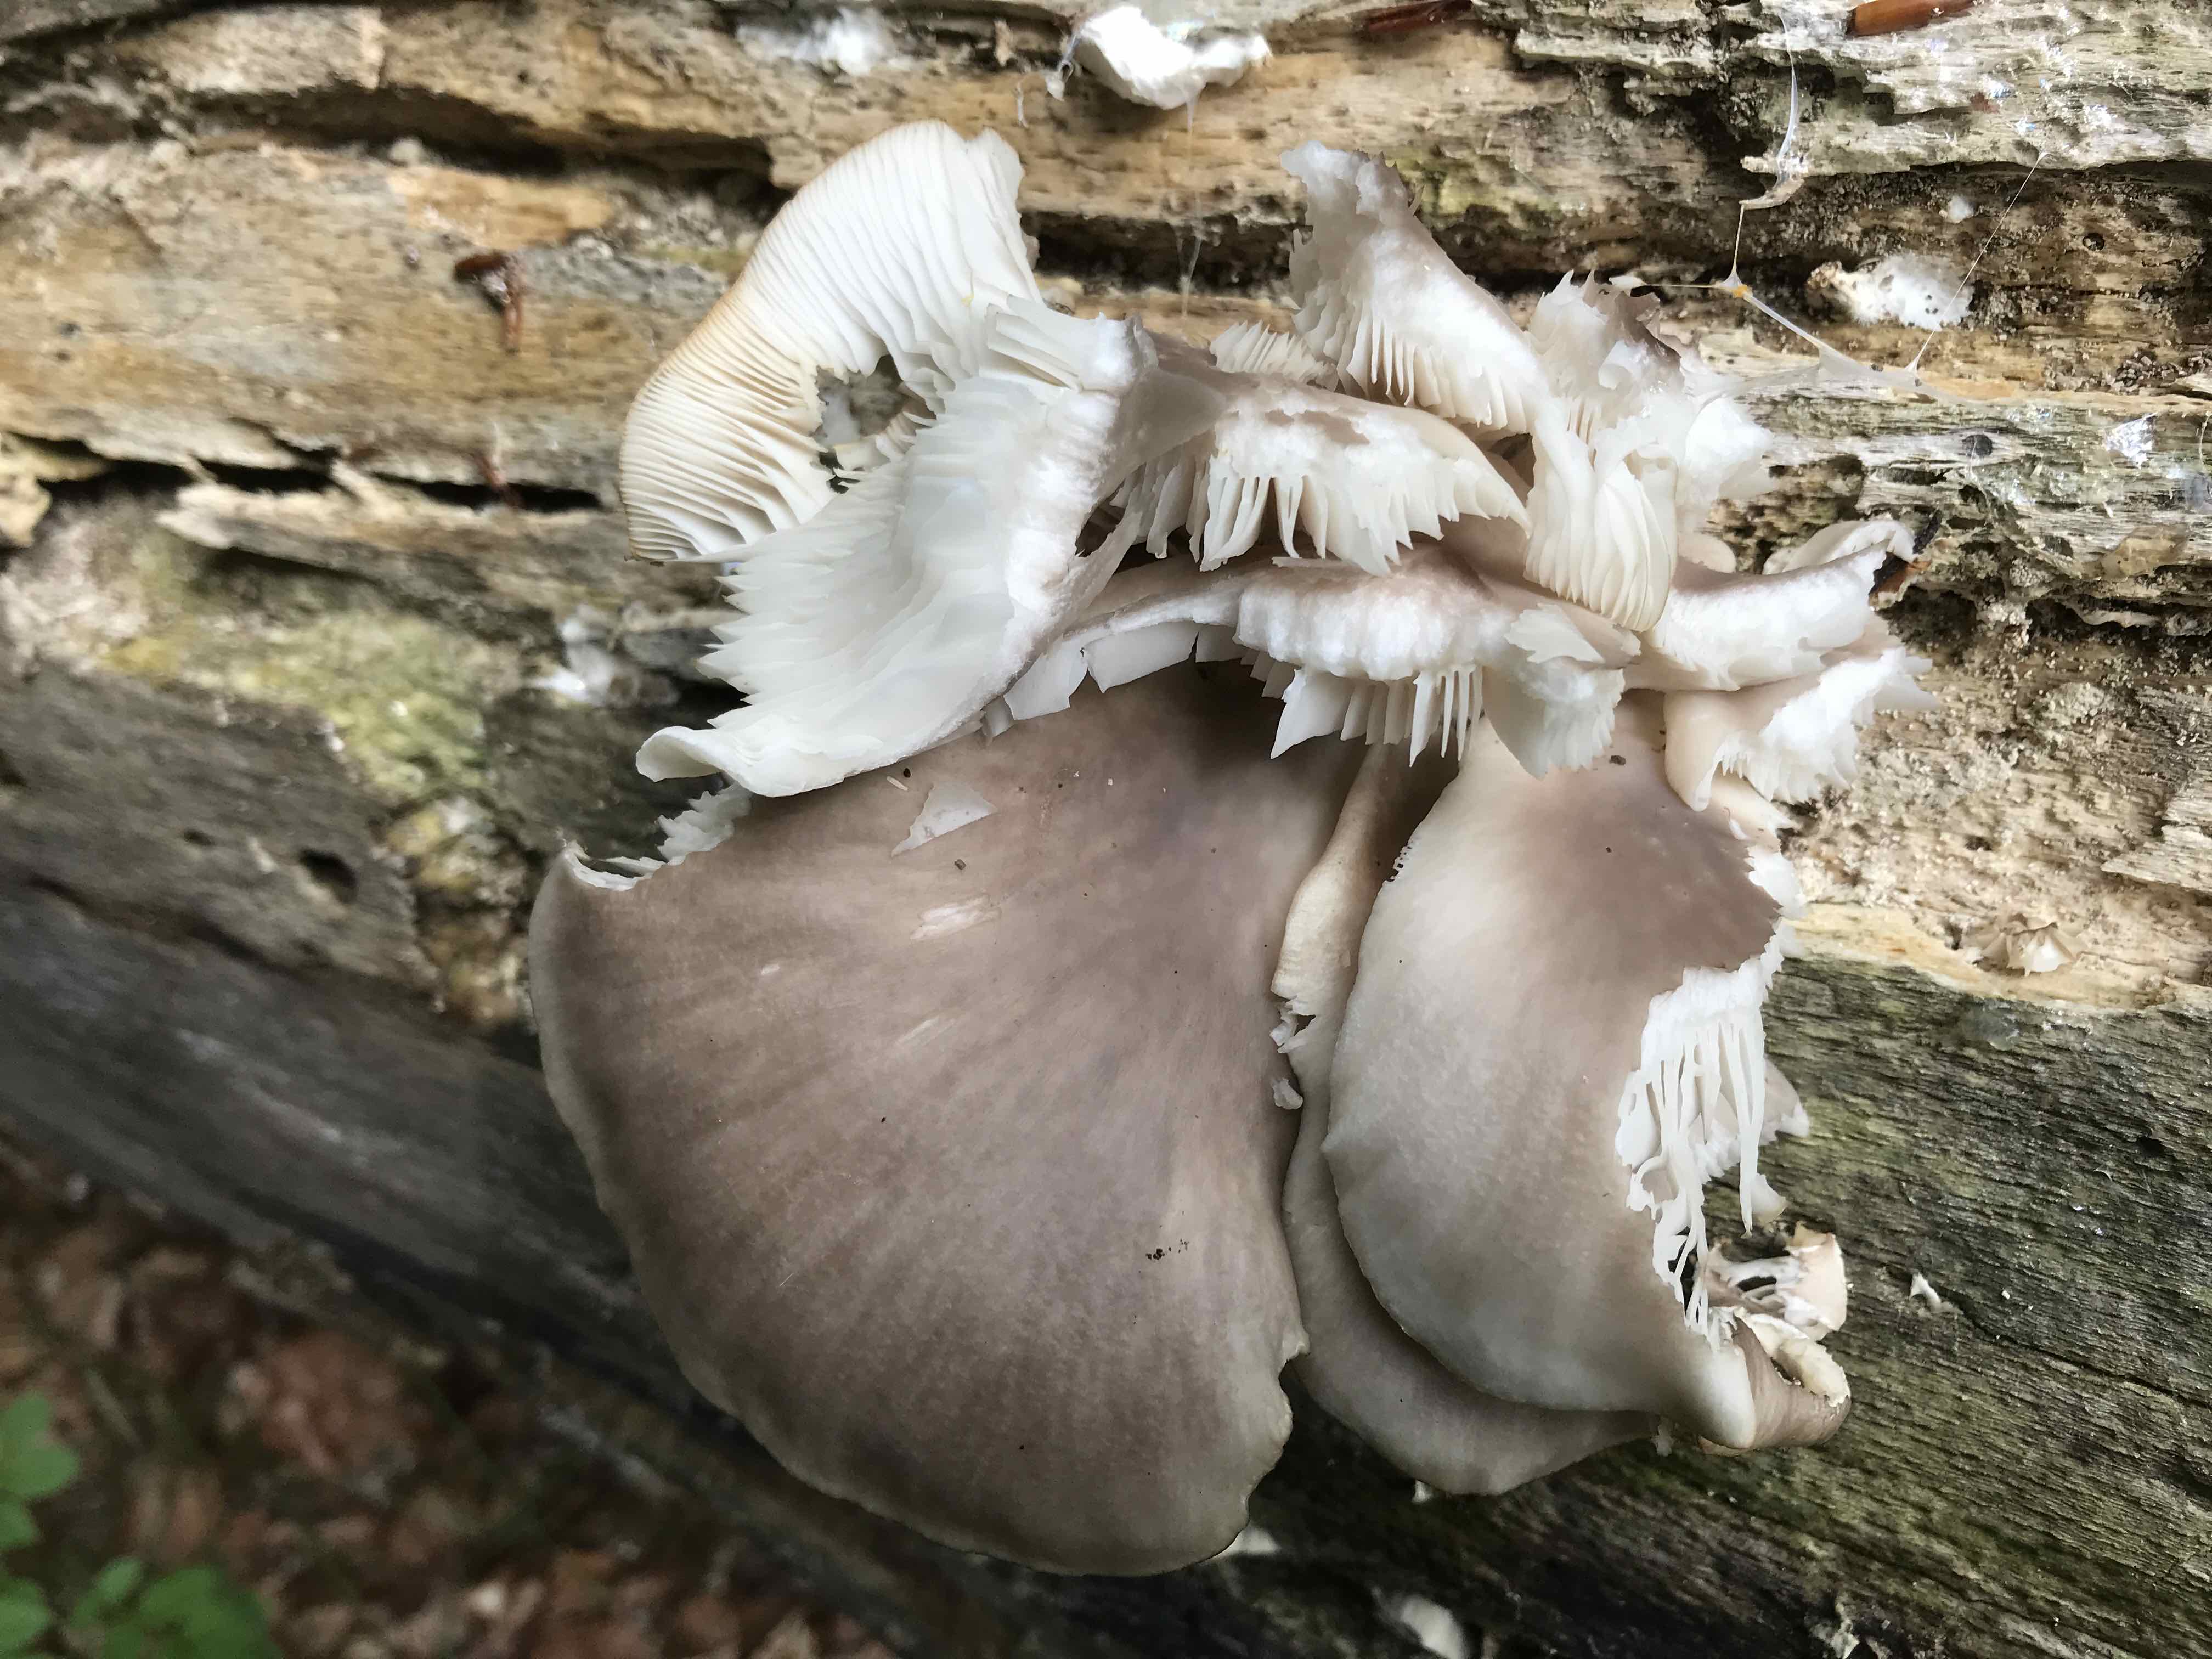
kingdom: Fungi
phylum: Basidiomycota
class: Agaricomycetes
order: Agaricales
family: Pleurotaceae
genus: Pleurotus
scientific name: Pleurotus pulmonarius
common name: sommer-østershat
